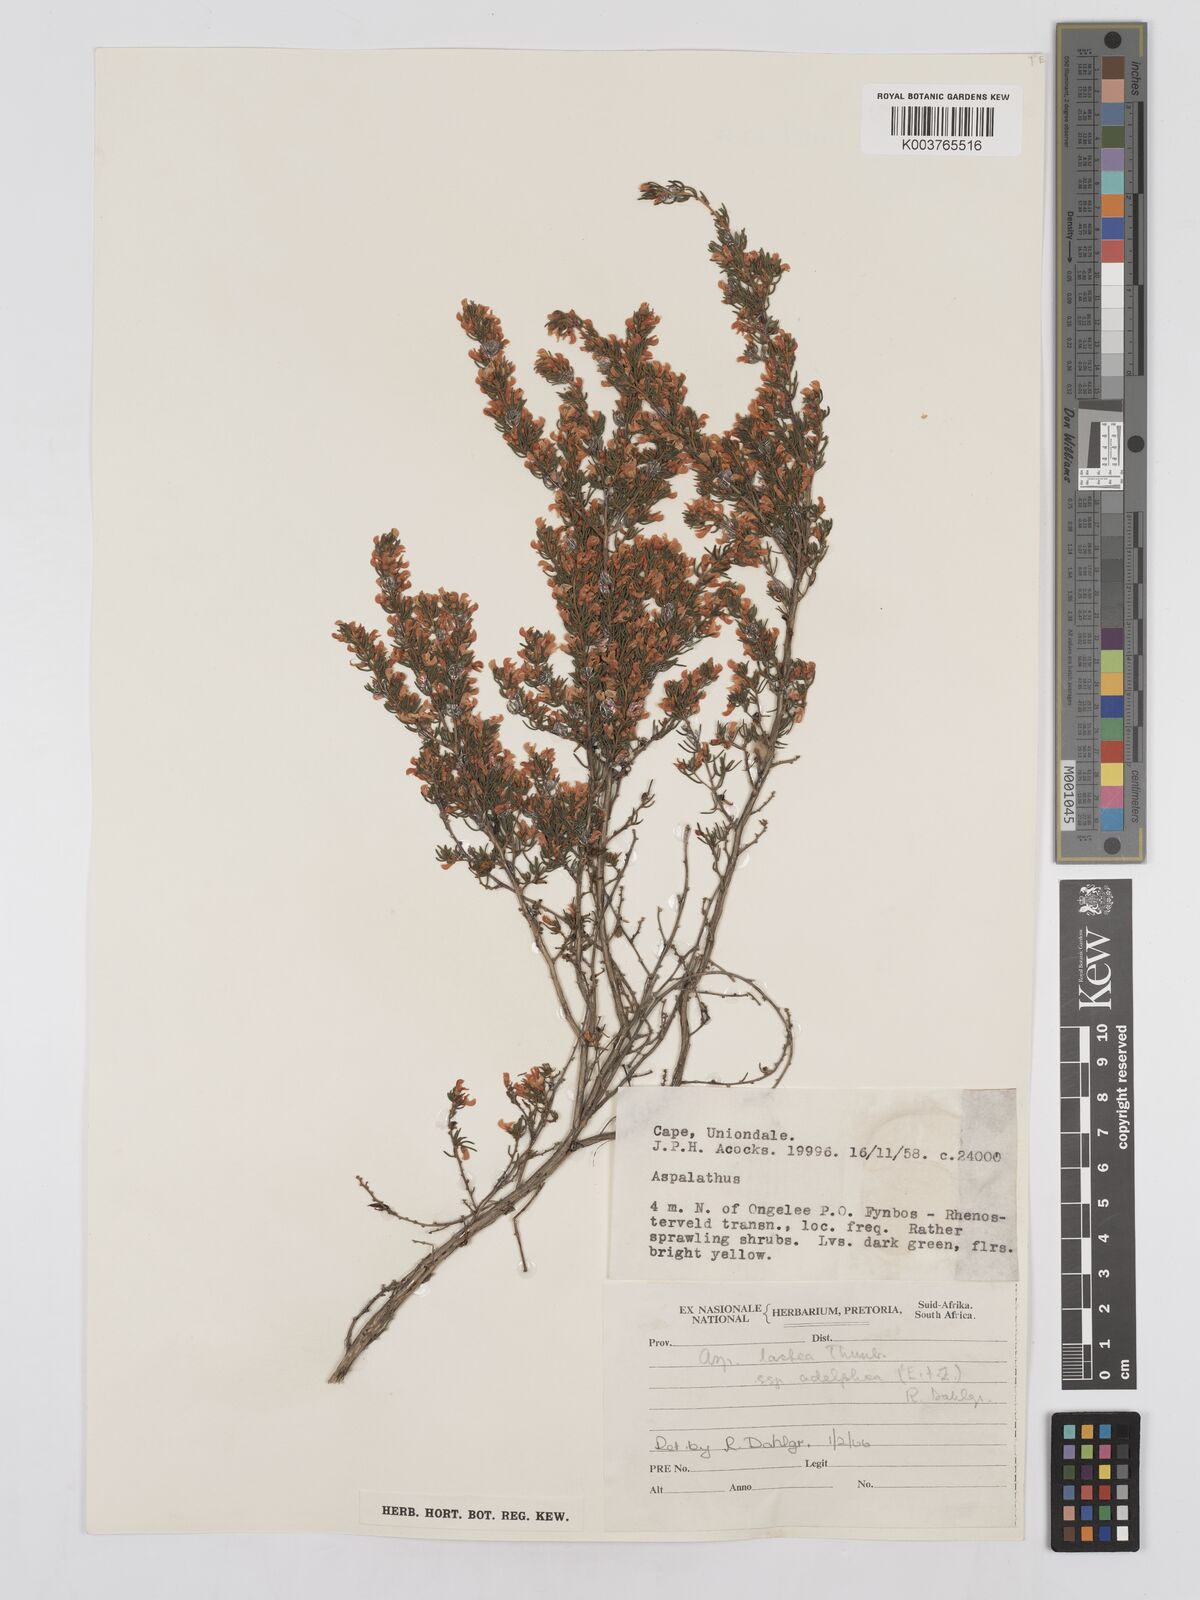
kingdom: Plantae
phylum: Tracheophyta
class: Magnoliopsida
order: Fabales
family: Fabaceae
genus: Aspalathus
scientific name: Aspalathus lactea
